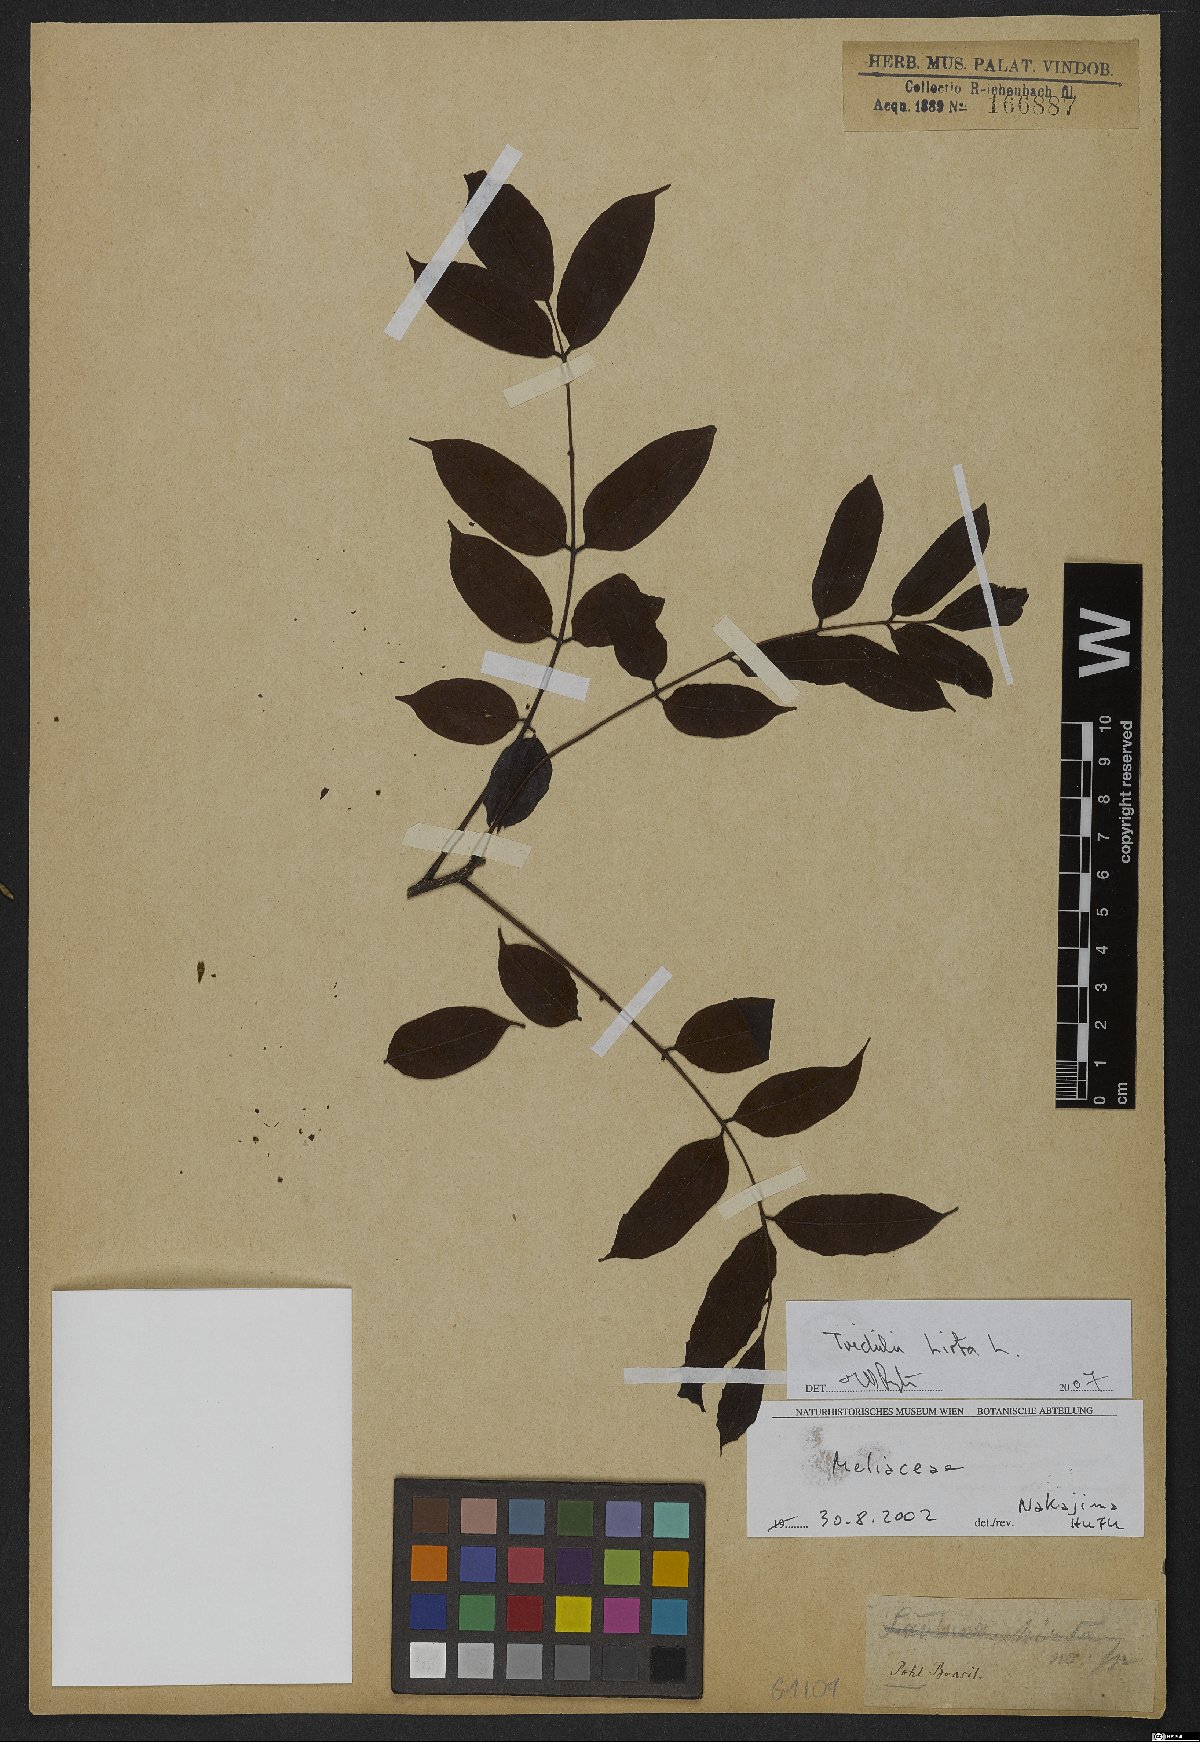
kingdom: Plantae
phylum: Tracheophyta
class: Magnoliopsida
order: Sapindales
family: Meliaceae
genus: Trichilia
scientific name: Trichilia hirta
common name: Red-cedar
